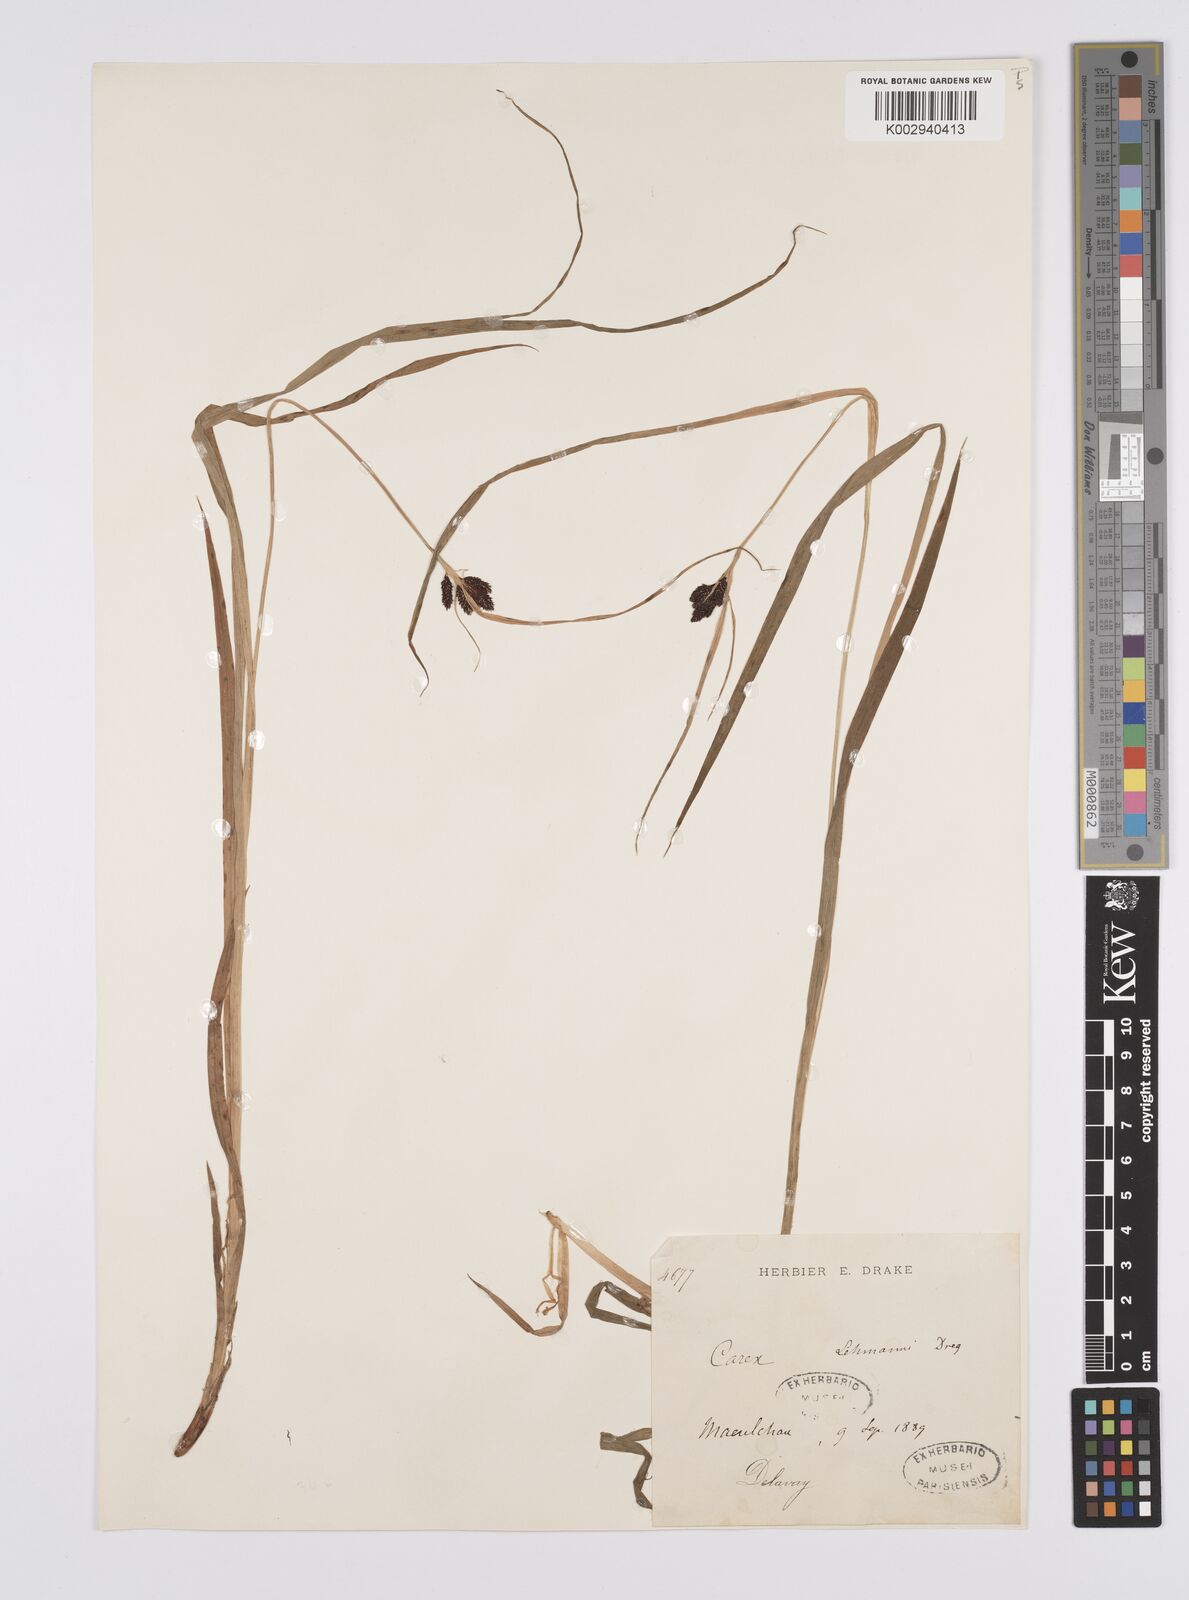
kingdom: Plantae
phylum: Tracheophyta
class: Liliopsida
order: Poales
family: Cyperaceae
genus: Carex
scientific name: Carex lehmannii
